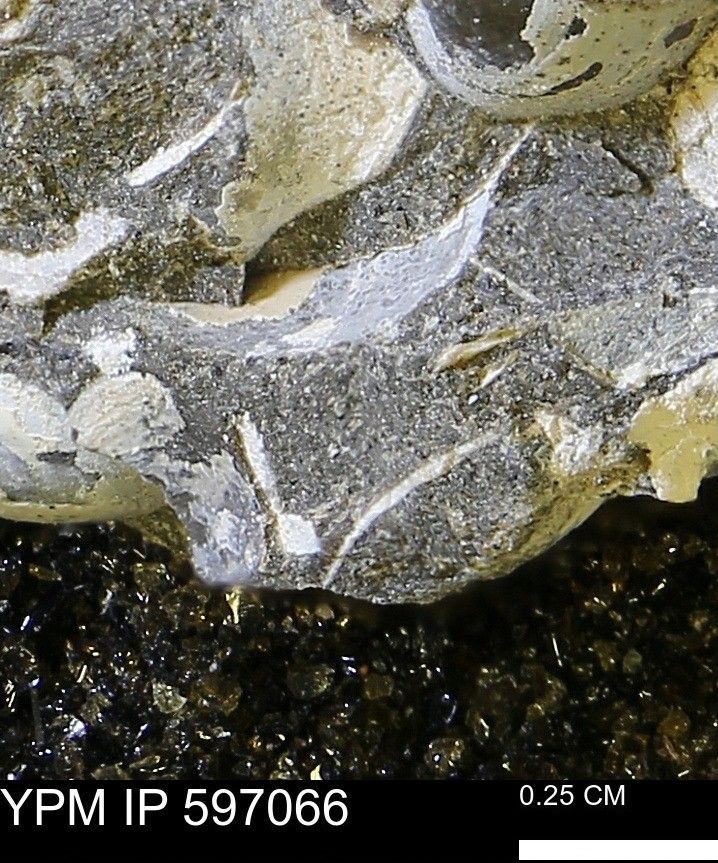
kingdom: Animalia
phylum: Mollusca
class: Bivalvia
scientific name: Bivalvia
